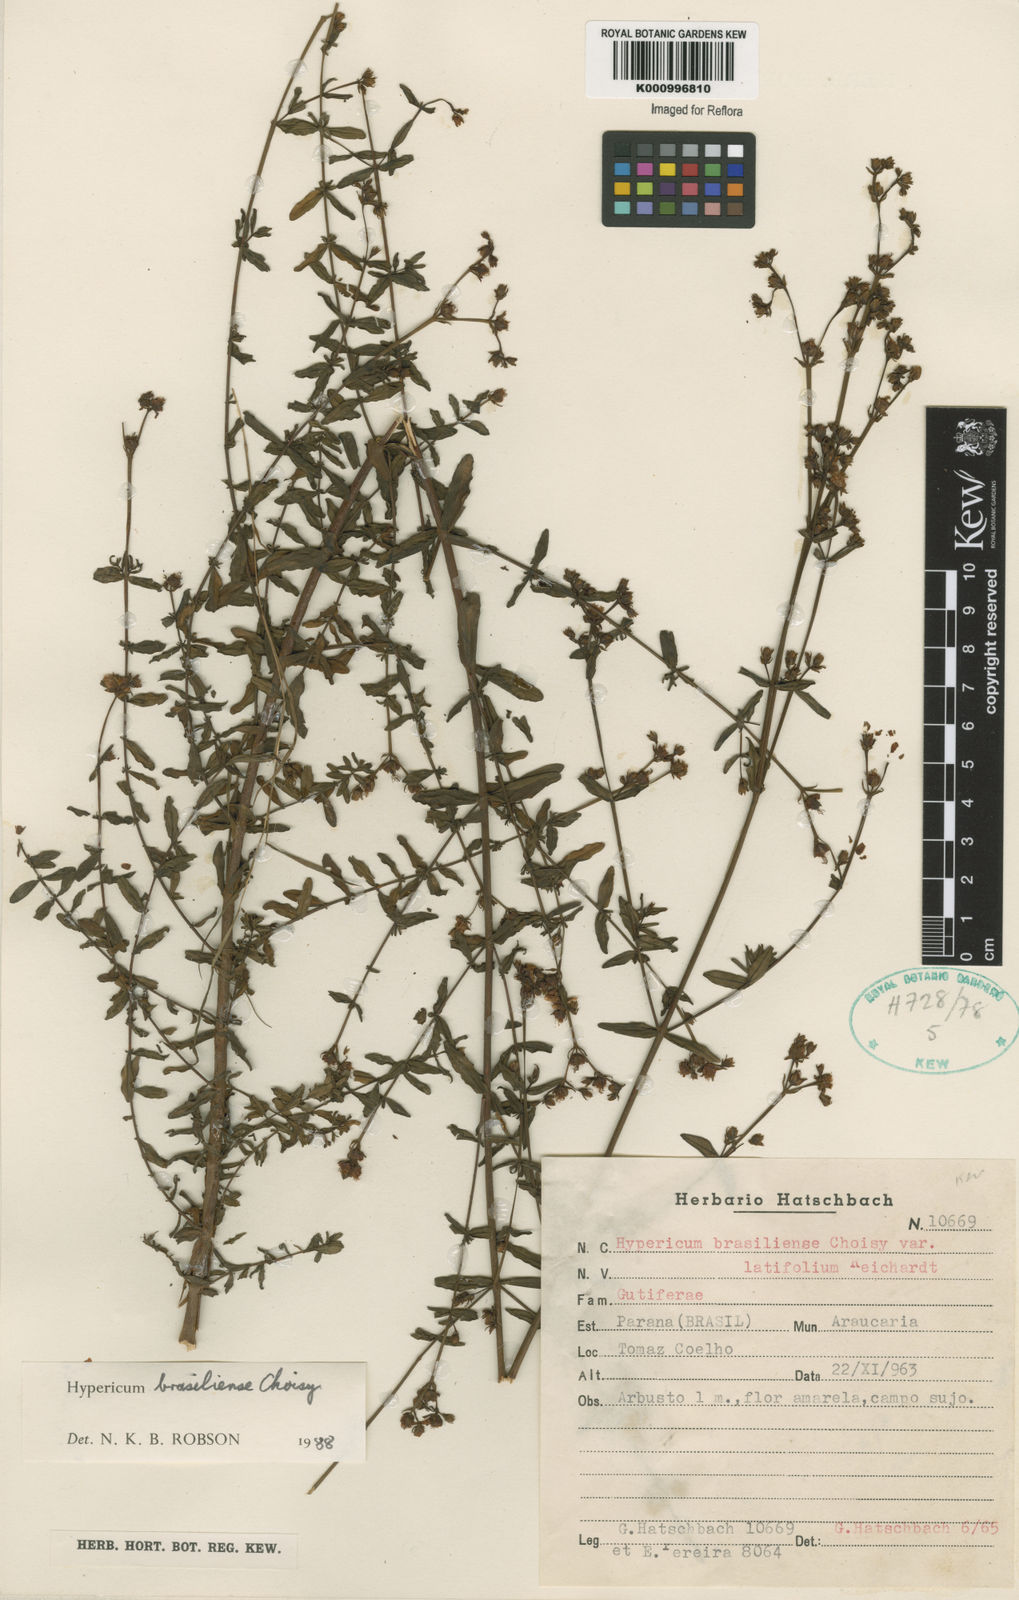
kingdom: Plantae
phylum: Tracheophyta
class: Magnoliopsida
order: Malpighiales
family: Hypericaceae
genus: Hypericum
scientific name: Hypericum brasiliense
